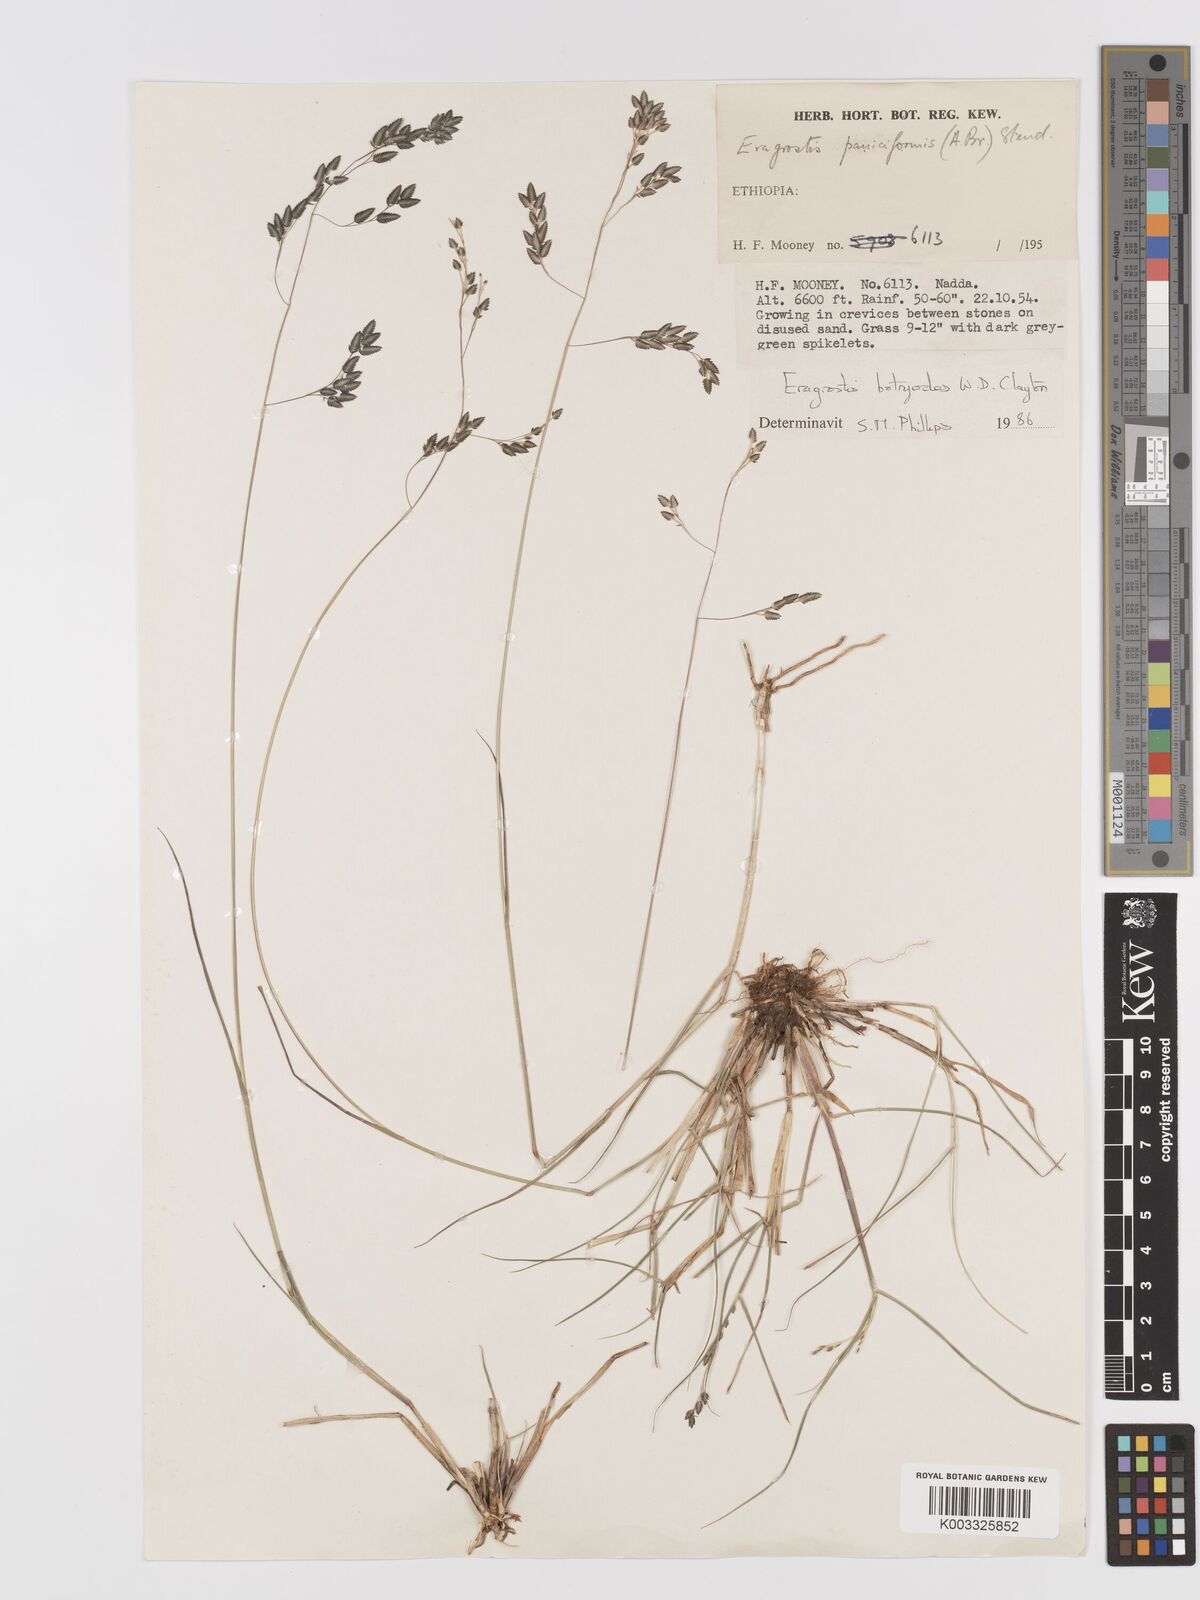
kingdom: Plantae
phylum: Tracheophyta
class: Liliopsida
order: Poales
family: Poaceae
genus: Eragrostis
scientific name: Eragrostis botryodes
